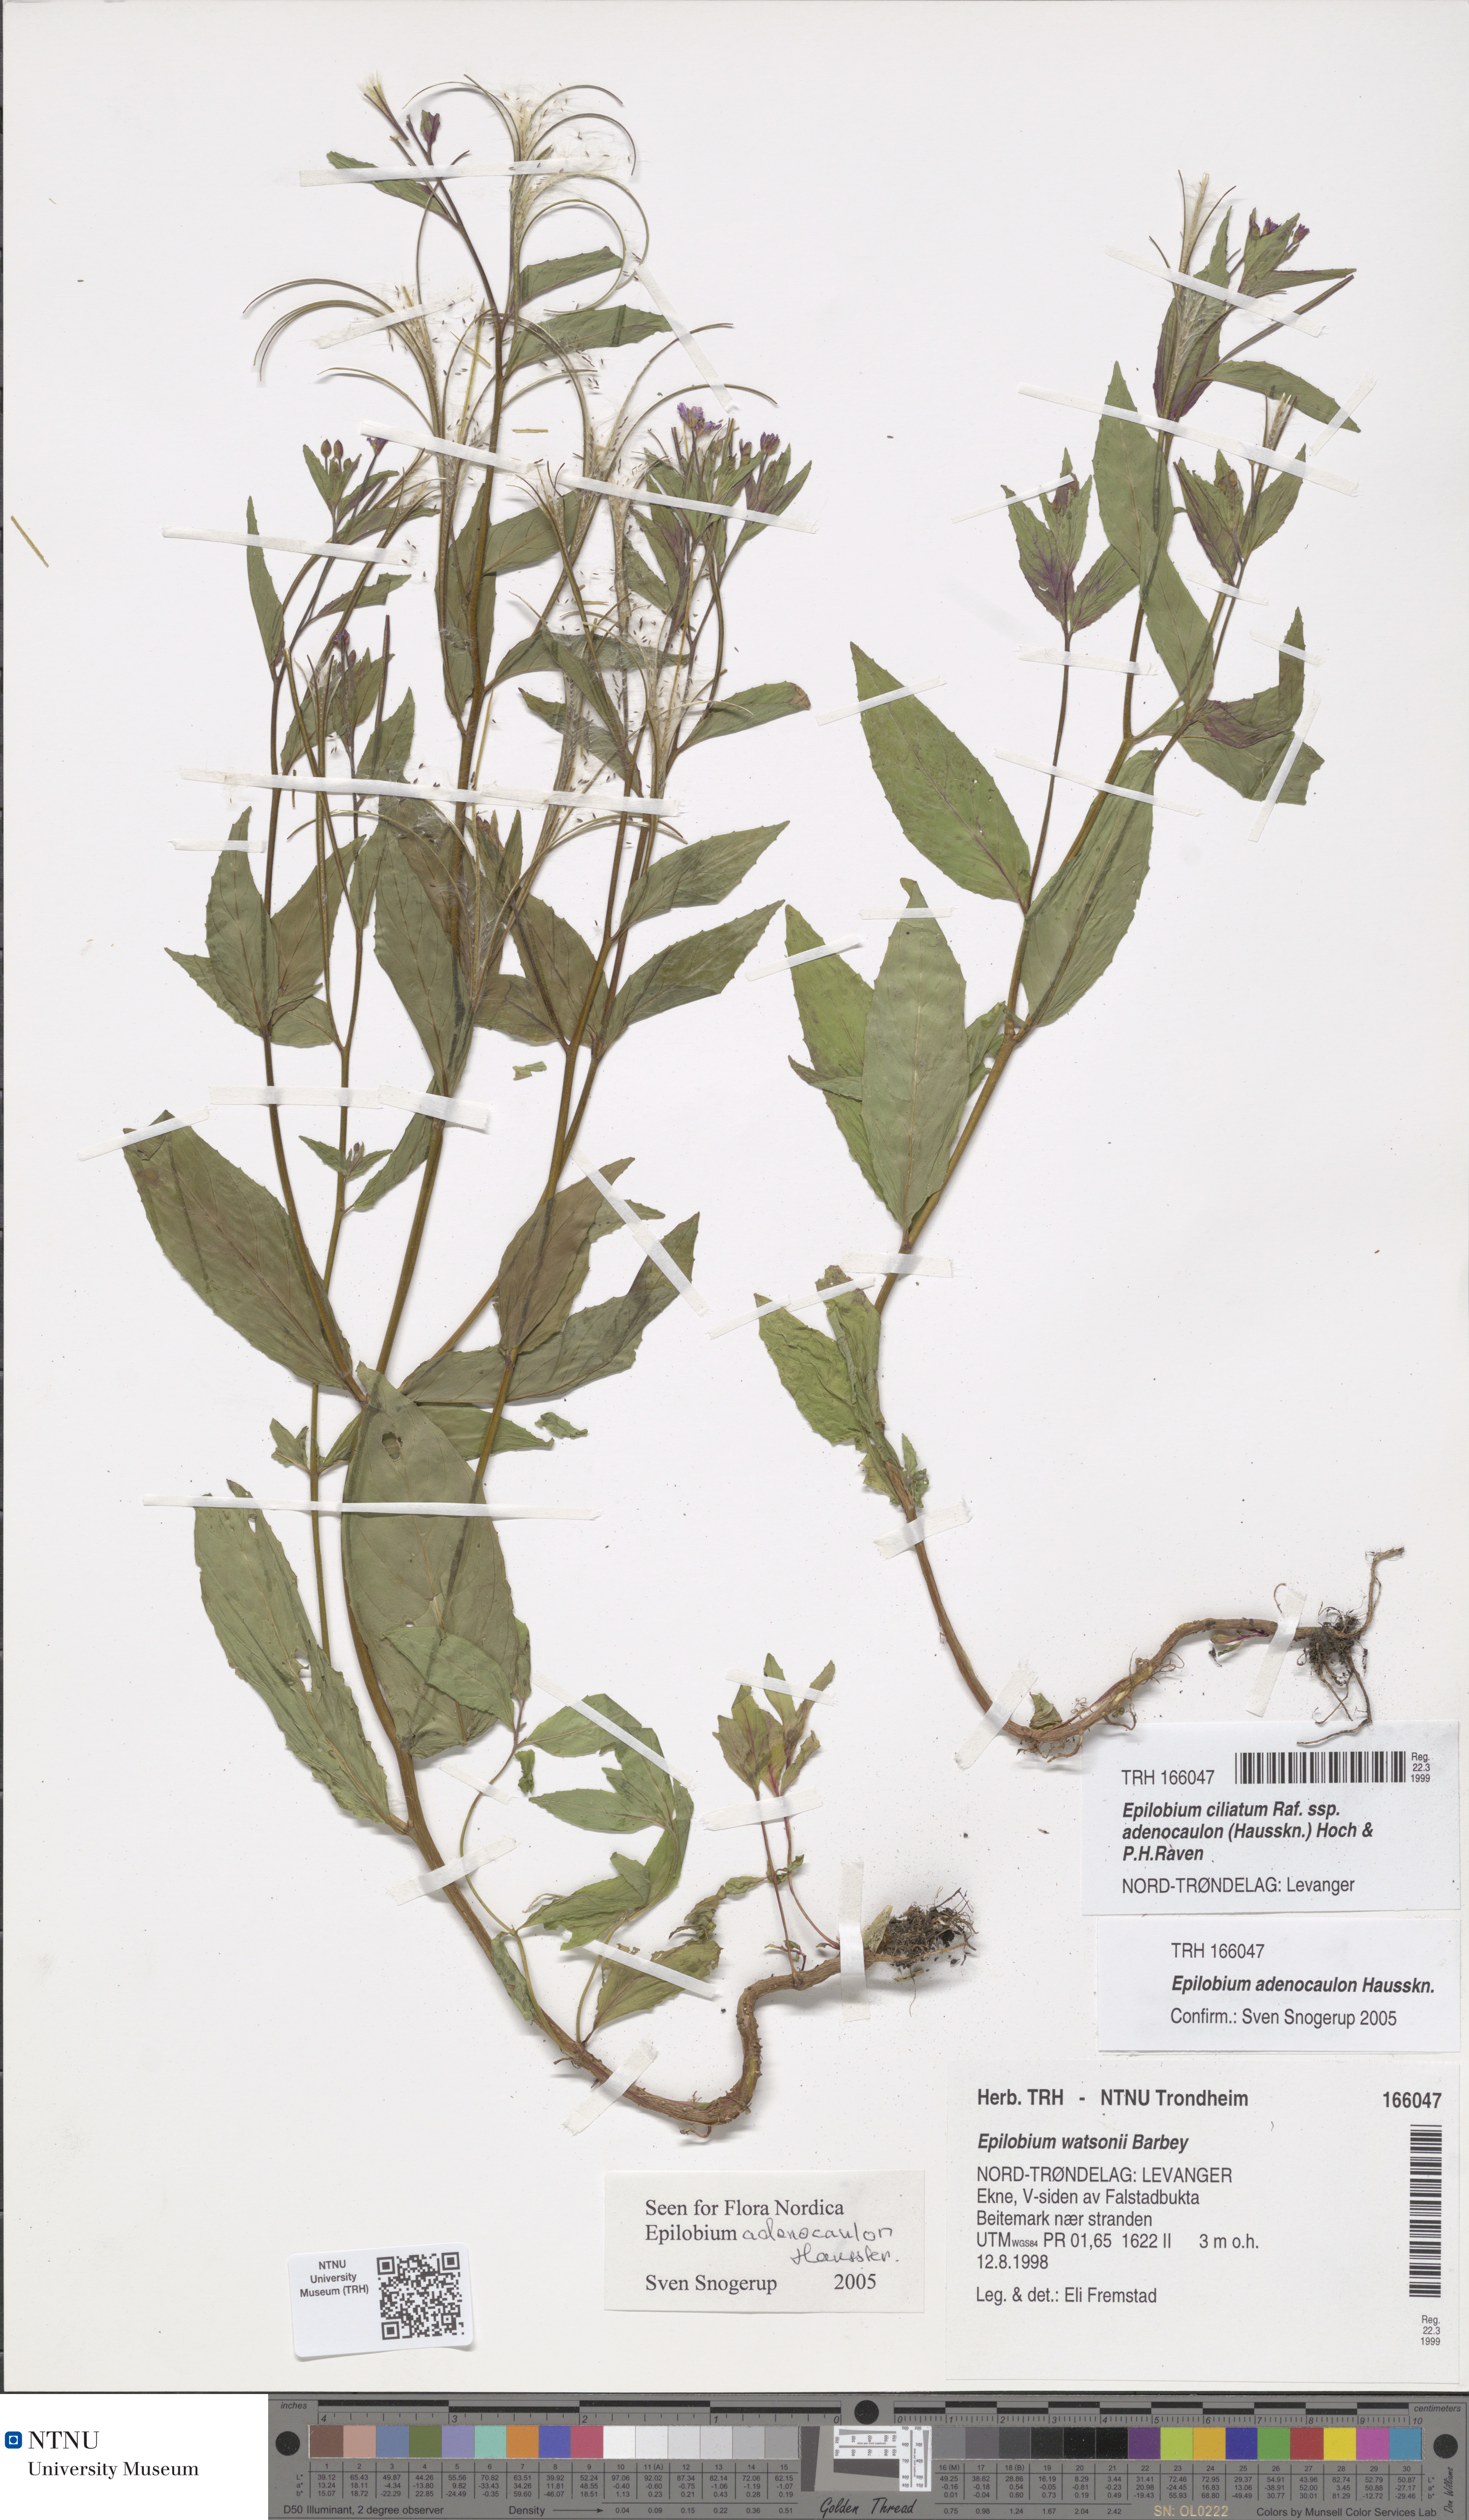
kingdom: Plantae
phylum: Tracheophyta
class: Magnoliopsida
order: Myrtales
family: Onagraceae
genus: Epilobium
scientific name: Epilobium ciliatum
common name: American willowherb
